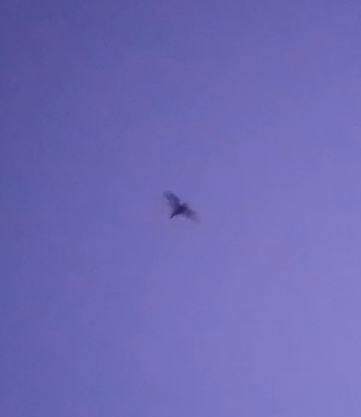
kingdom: Animalia
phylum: Chordata
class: Mammalia
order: Chiroptera
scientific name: Chiroptera
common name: Flagermus
